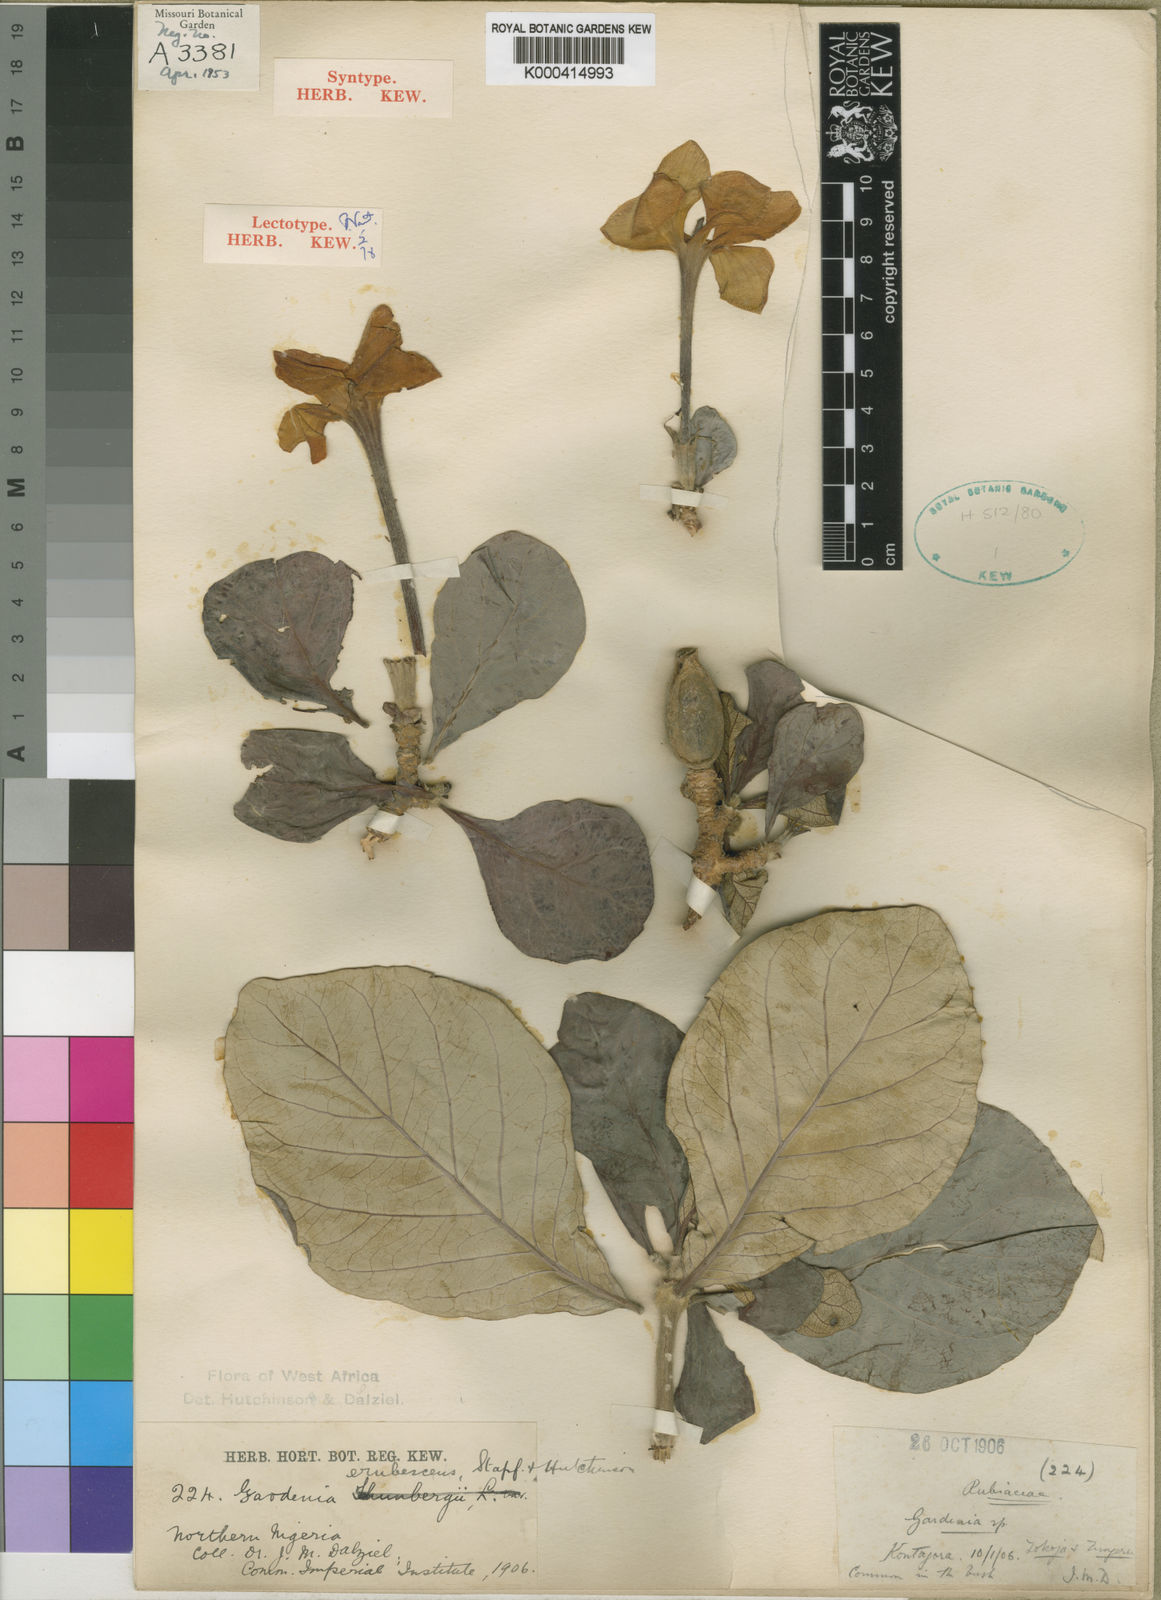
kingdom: Plantae
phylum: Tracheophyta
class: Magnoliopsida
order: Gentianales
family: Rubiaceae
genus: Gardenia
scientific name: Gardenia erubescens
